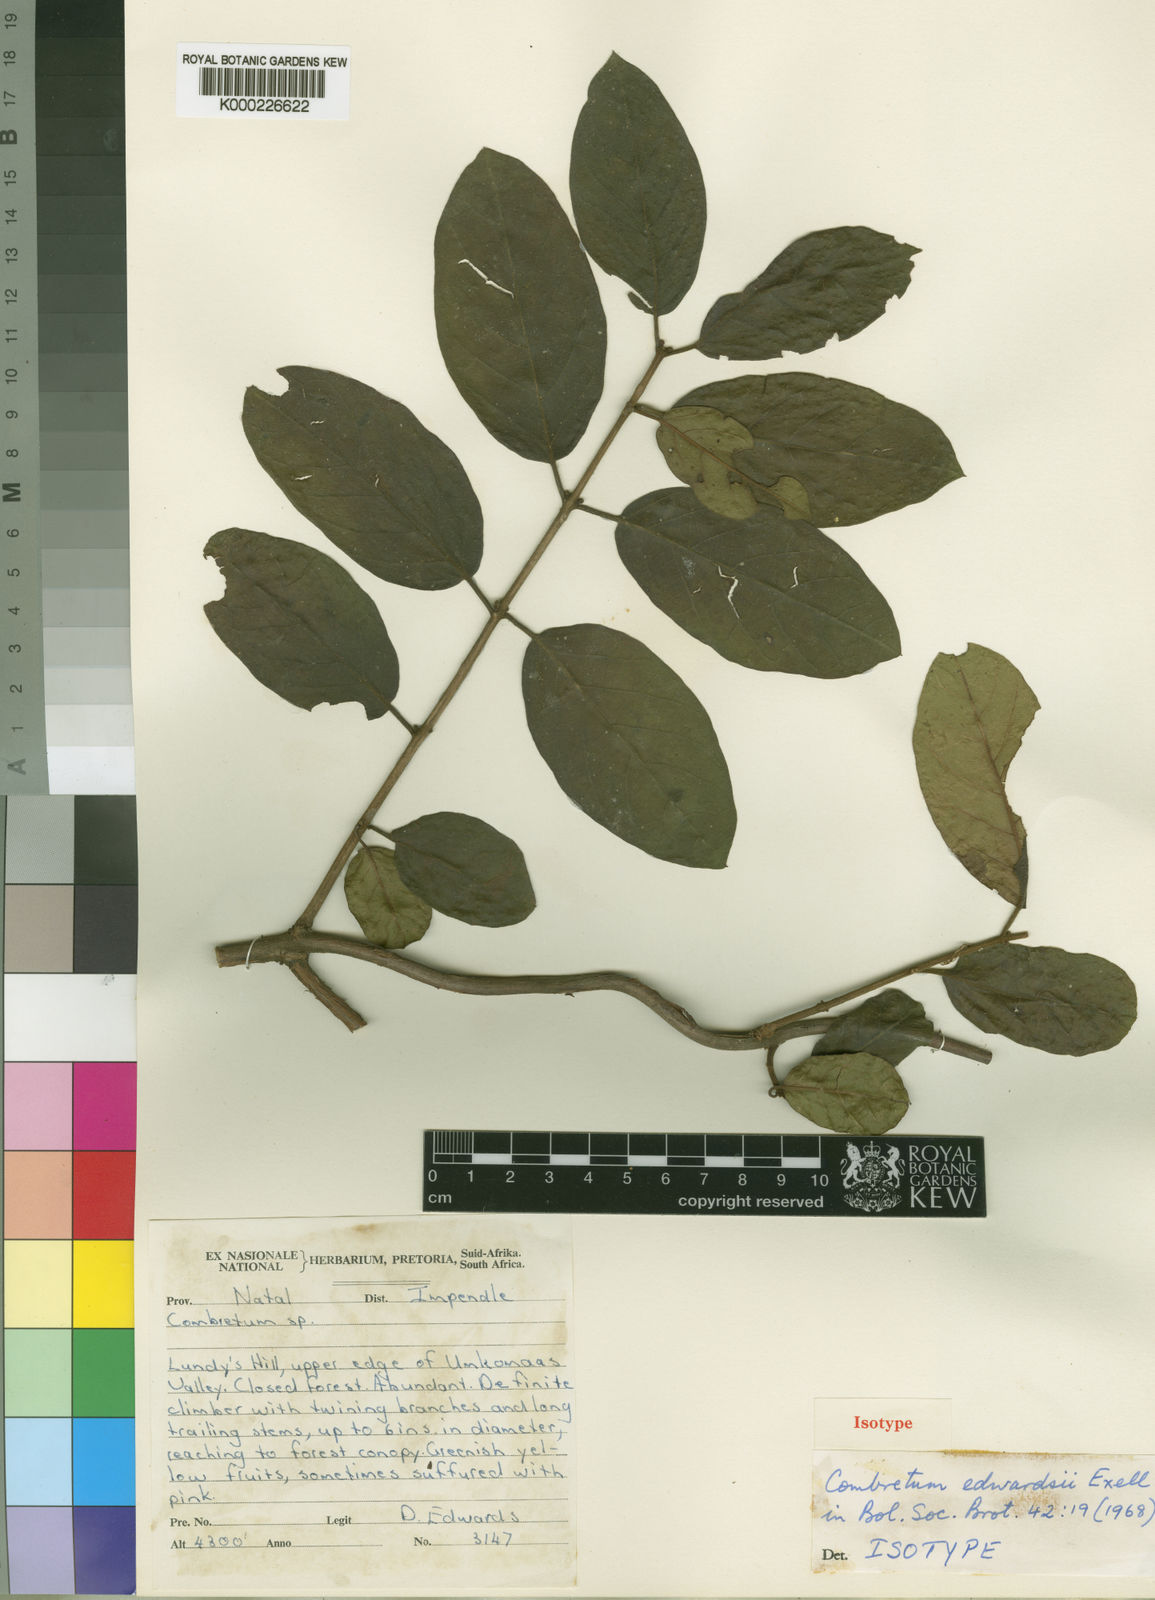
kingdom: Plantae
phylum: Tracheophyta
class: Magnoliopsida
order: Myrtales
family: Combretaceae
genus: Combretum
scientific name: Combretum edwardsii
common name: Forest climbing bushwillow
